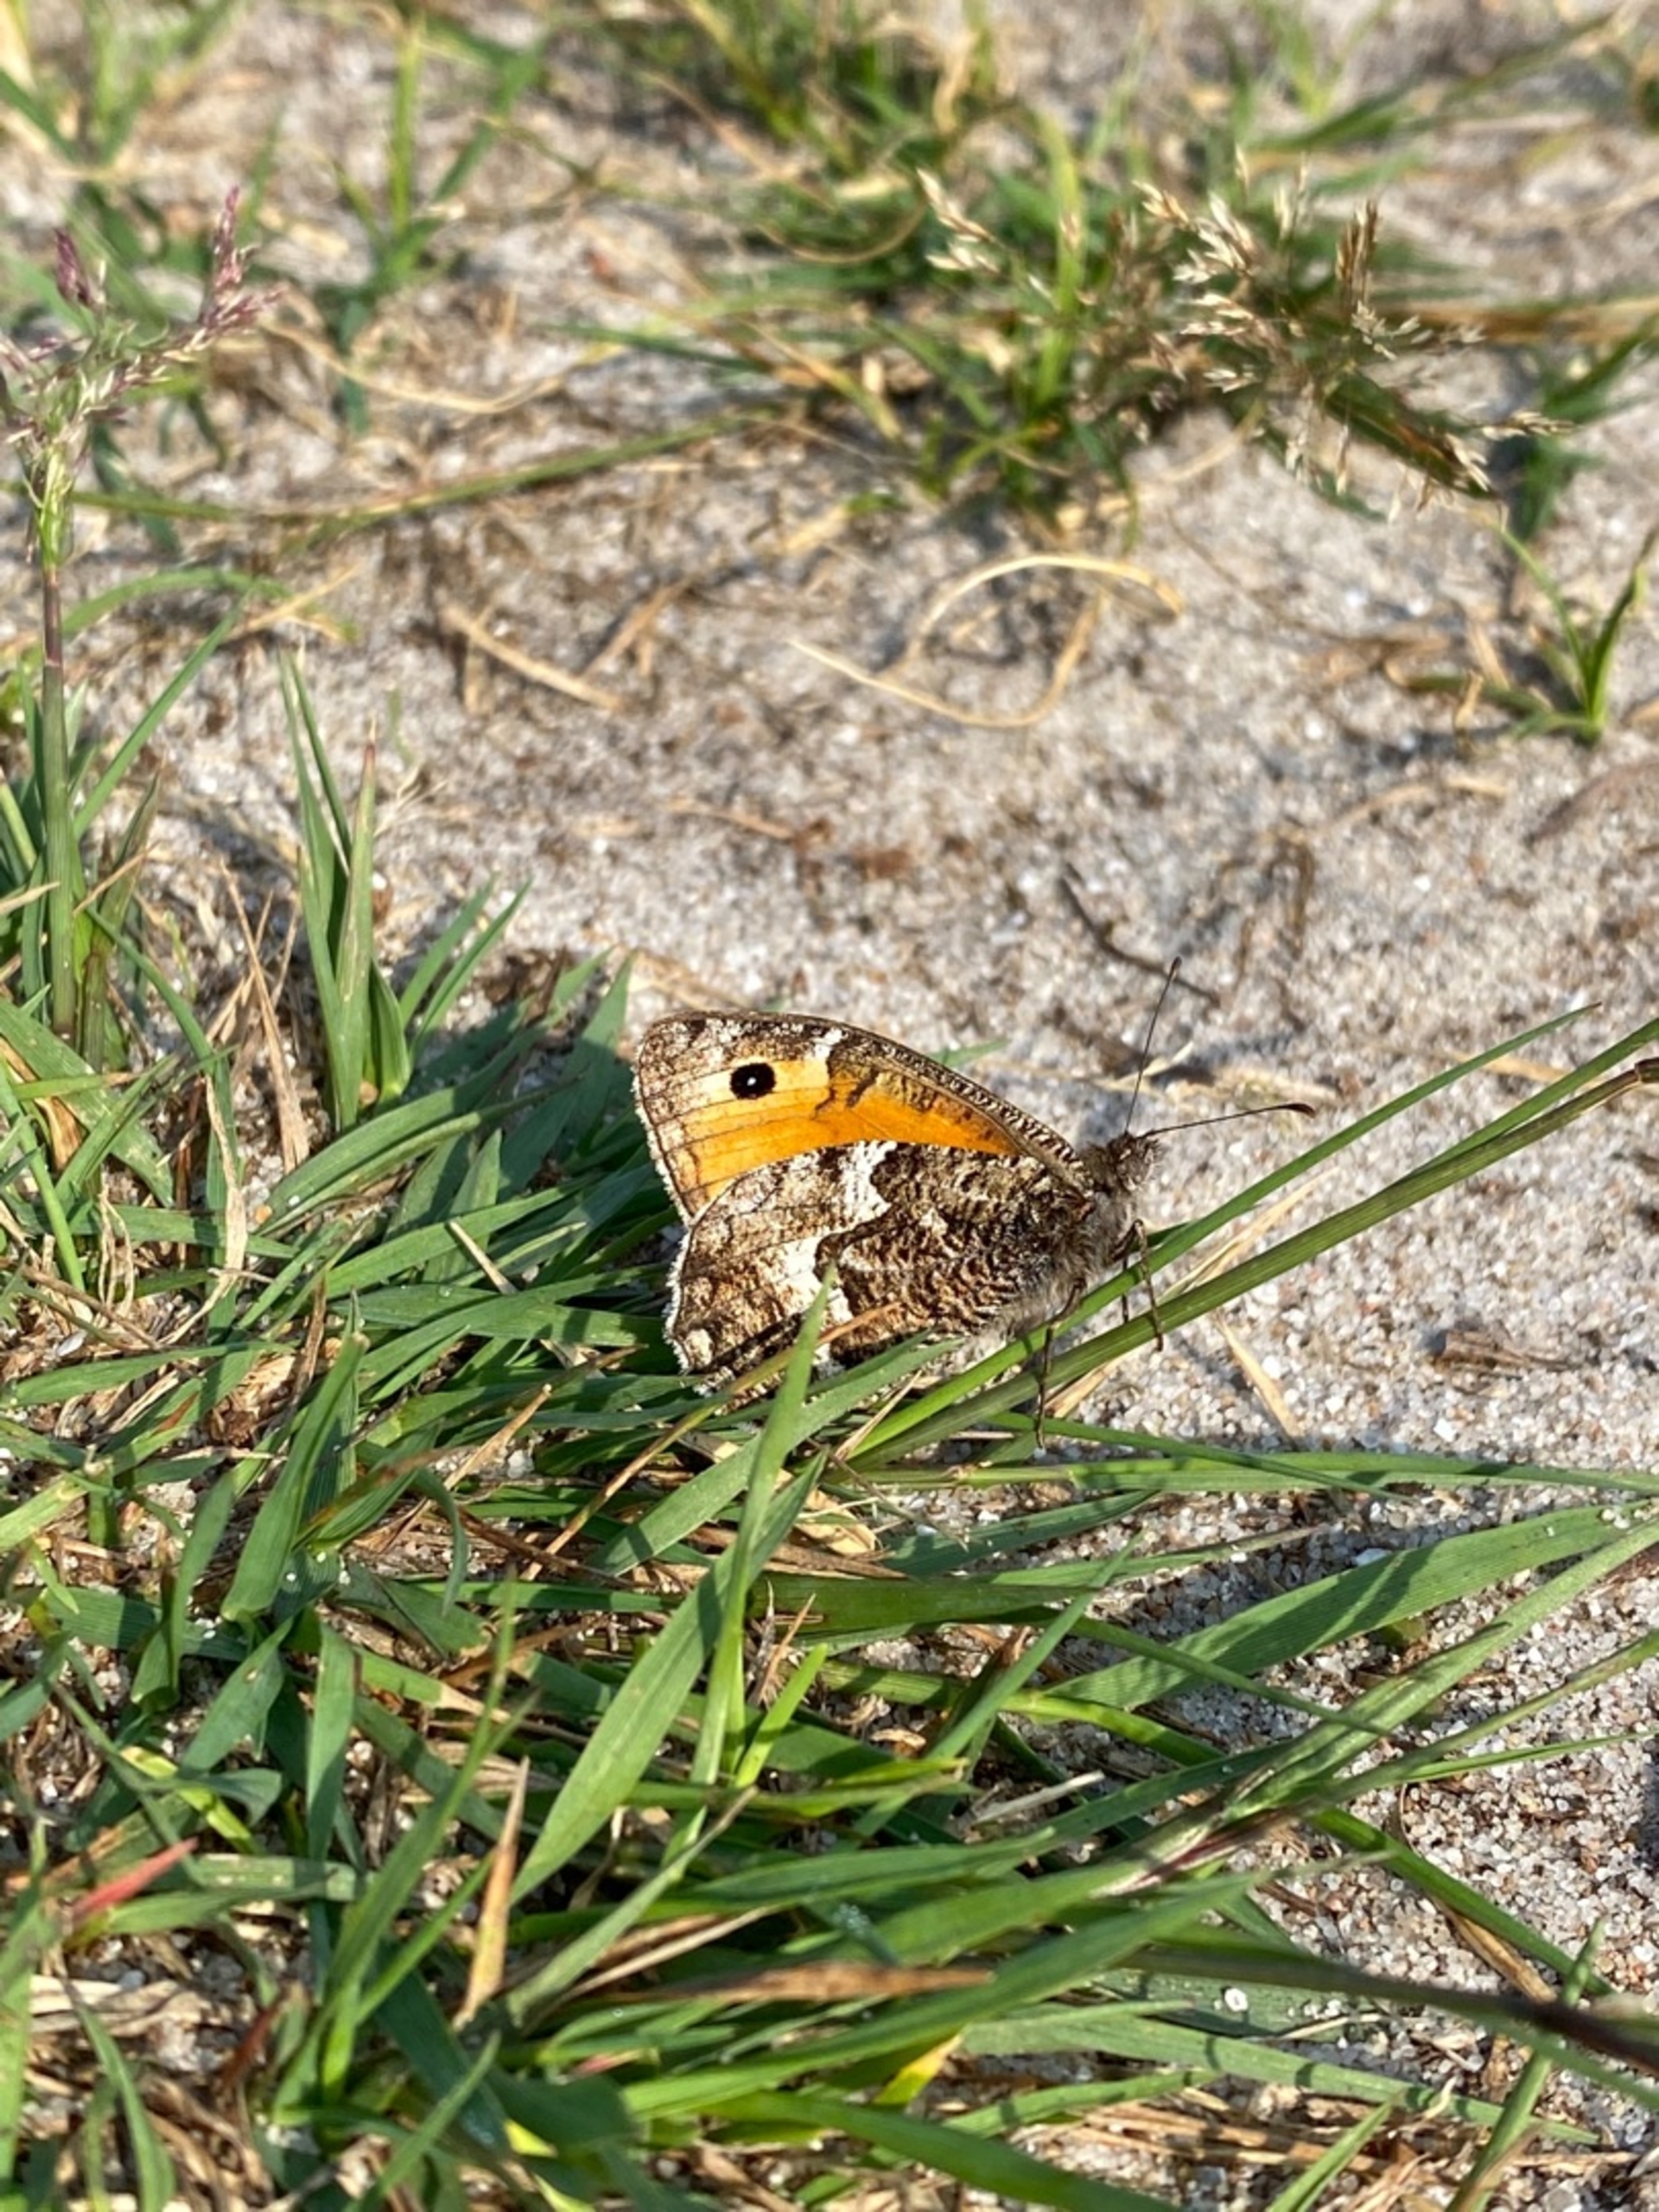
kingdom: Animalia
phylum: Arthropoda
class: Insecta
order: Lepidoptera
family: Nymphalidae
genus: Hipparchia
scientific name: Hipparchia semele
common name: Sandrandøje
